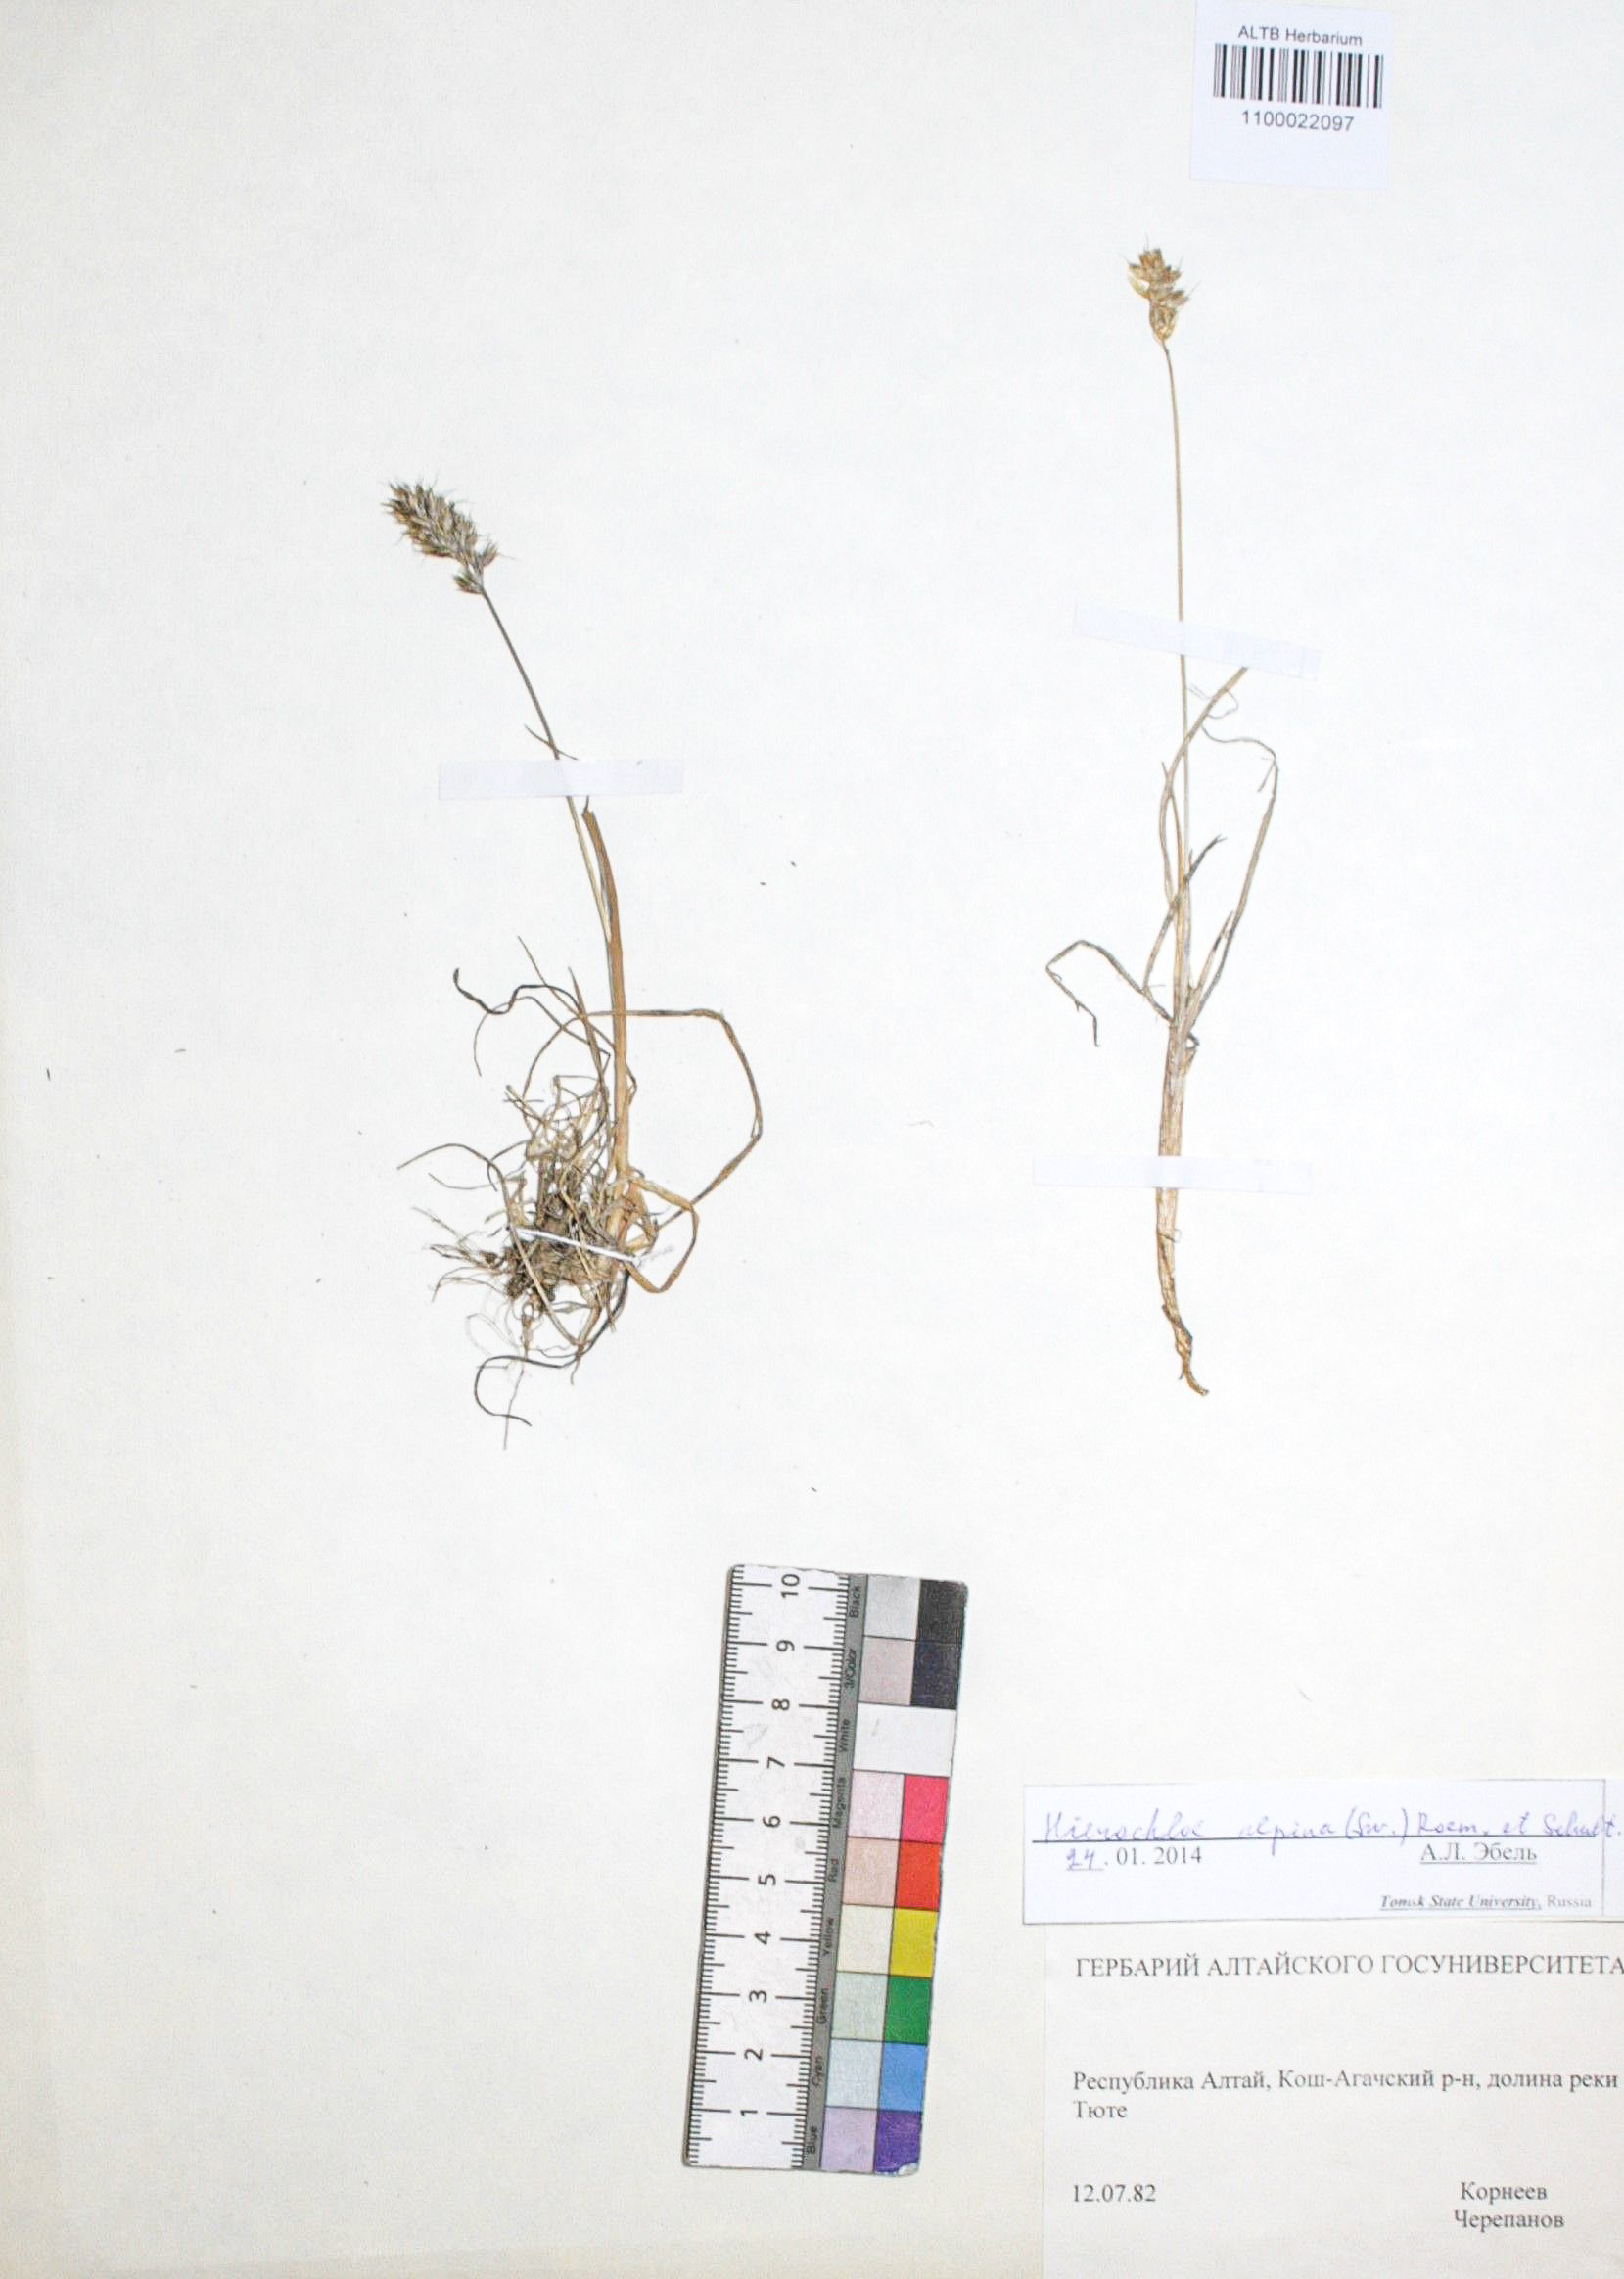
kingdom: Plantae
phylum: Tracheophyta
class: Liliopsida
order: Poales
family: Poaceae
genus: Anthoxanthum
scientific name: Anthoxanthum monticola
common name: Alpine sweetgrass
